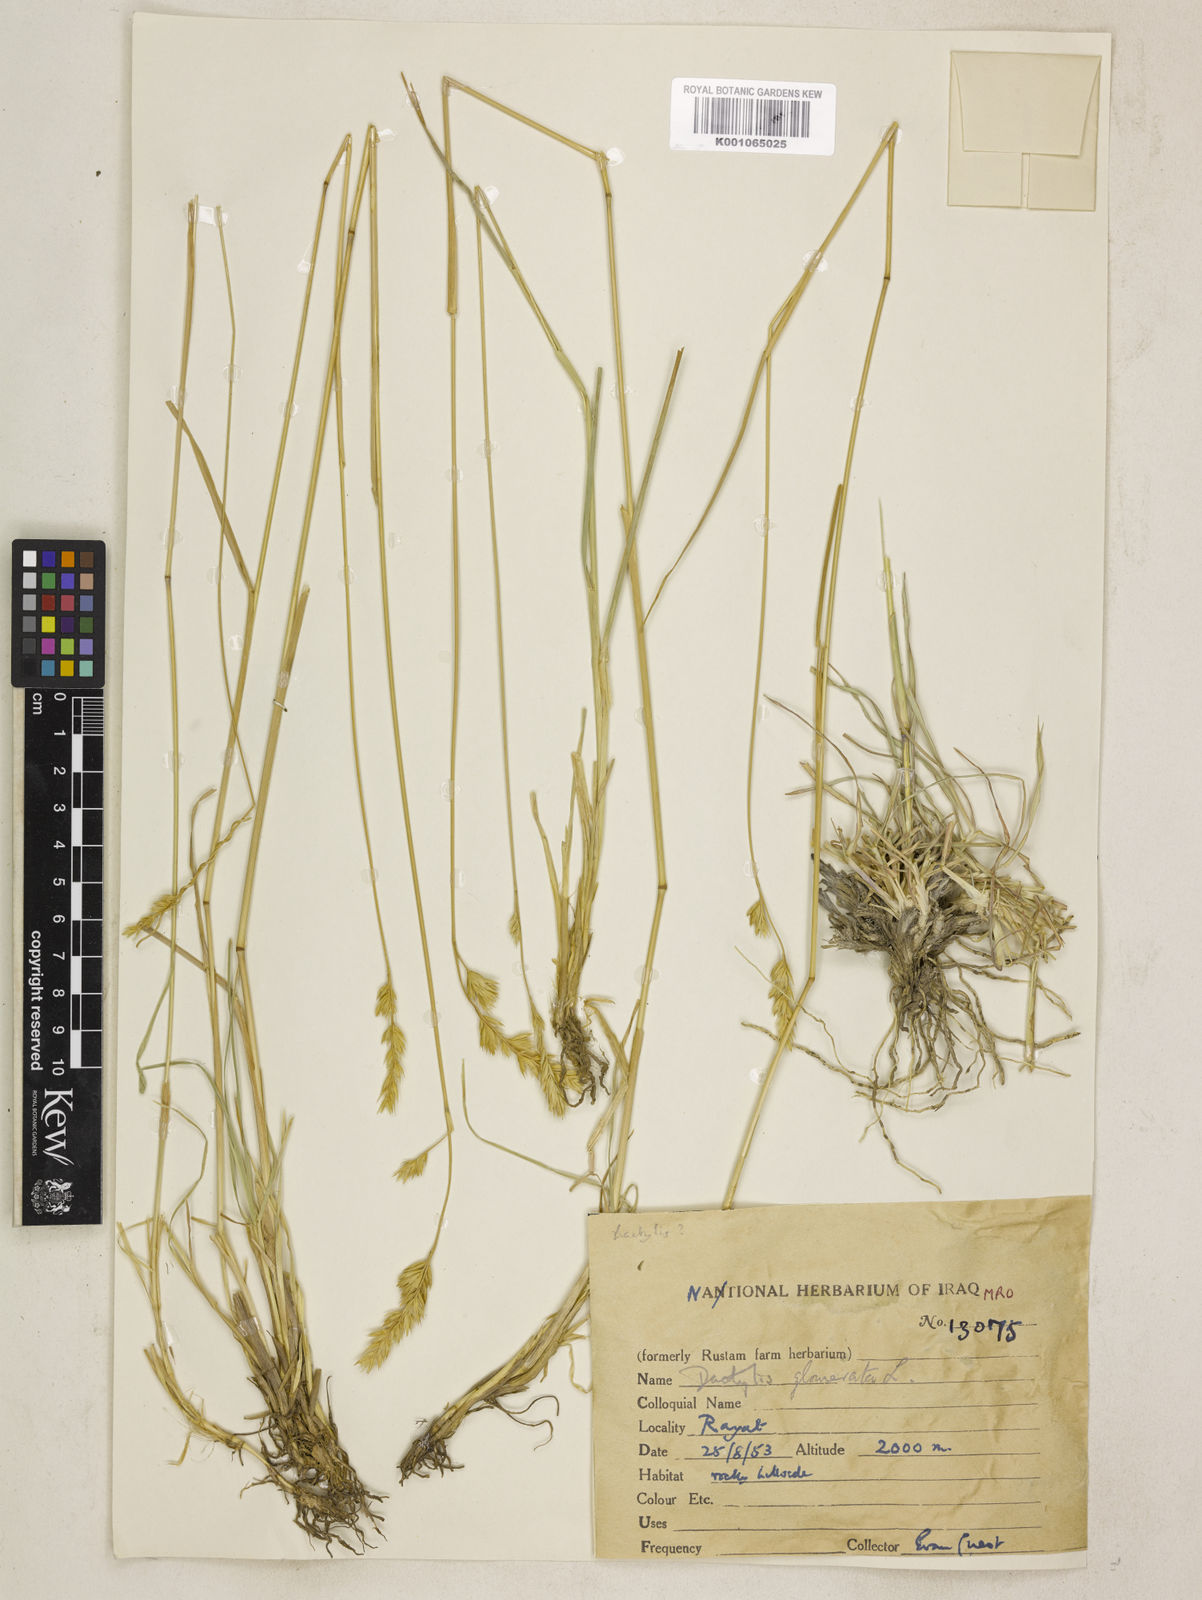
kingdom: Plantae
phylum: Tracheophyta
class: Liliopsida
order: Poales
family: Poaceae
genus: Dactylis
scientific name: Dactylis glomerata
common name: Orchardgrass
